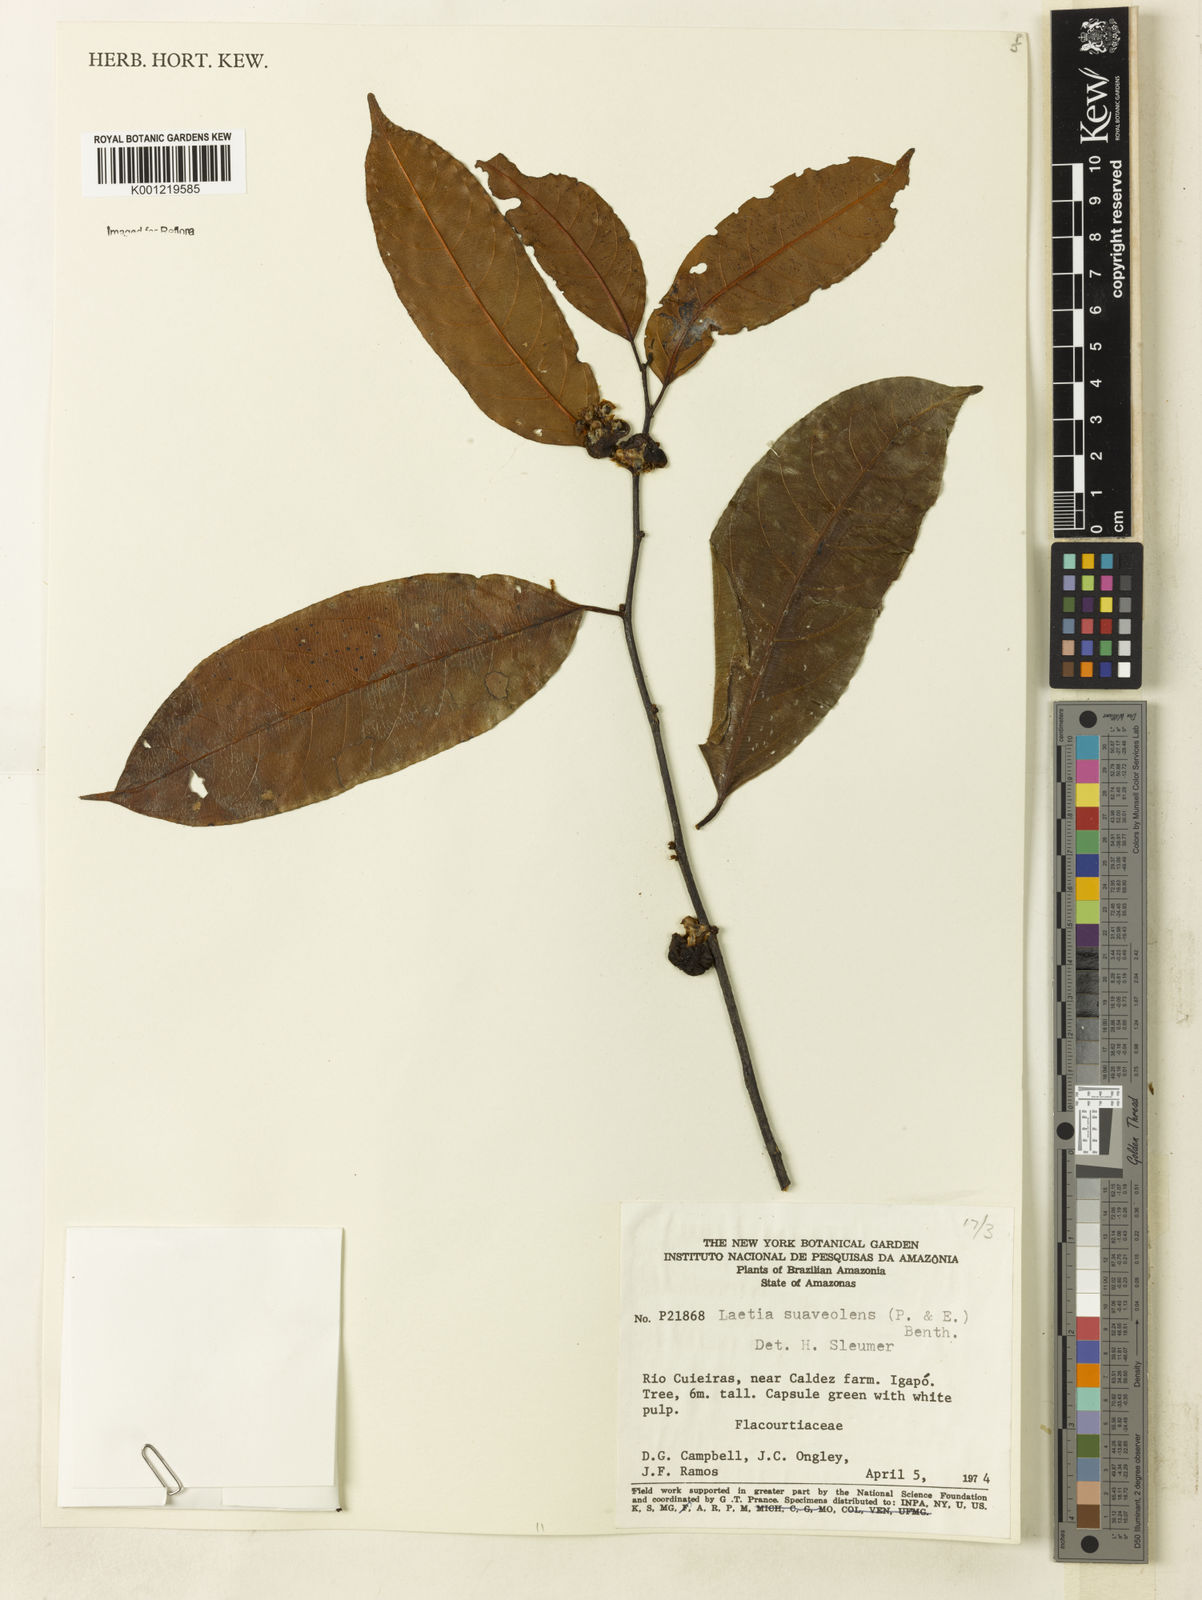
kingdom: Plantae
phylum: Tracheophyta
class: Magnoliopsida
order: Malpighiales
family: Salicaceae
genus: Casearia
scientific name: Casearia suaveolens
